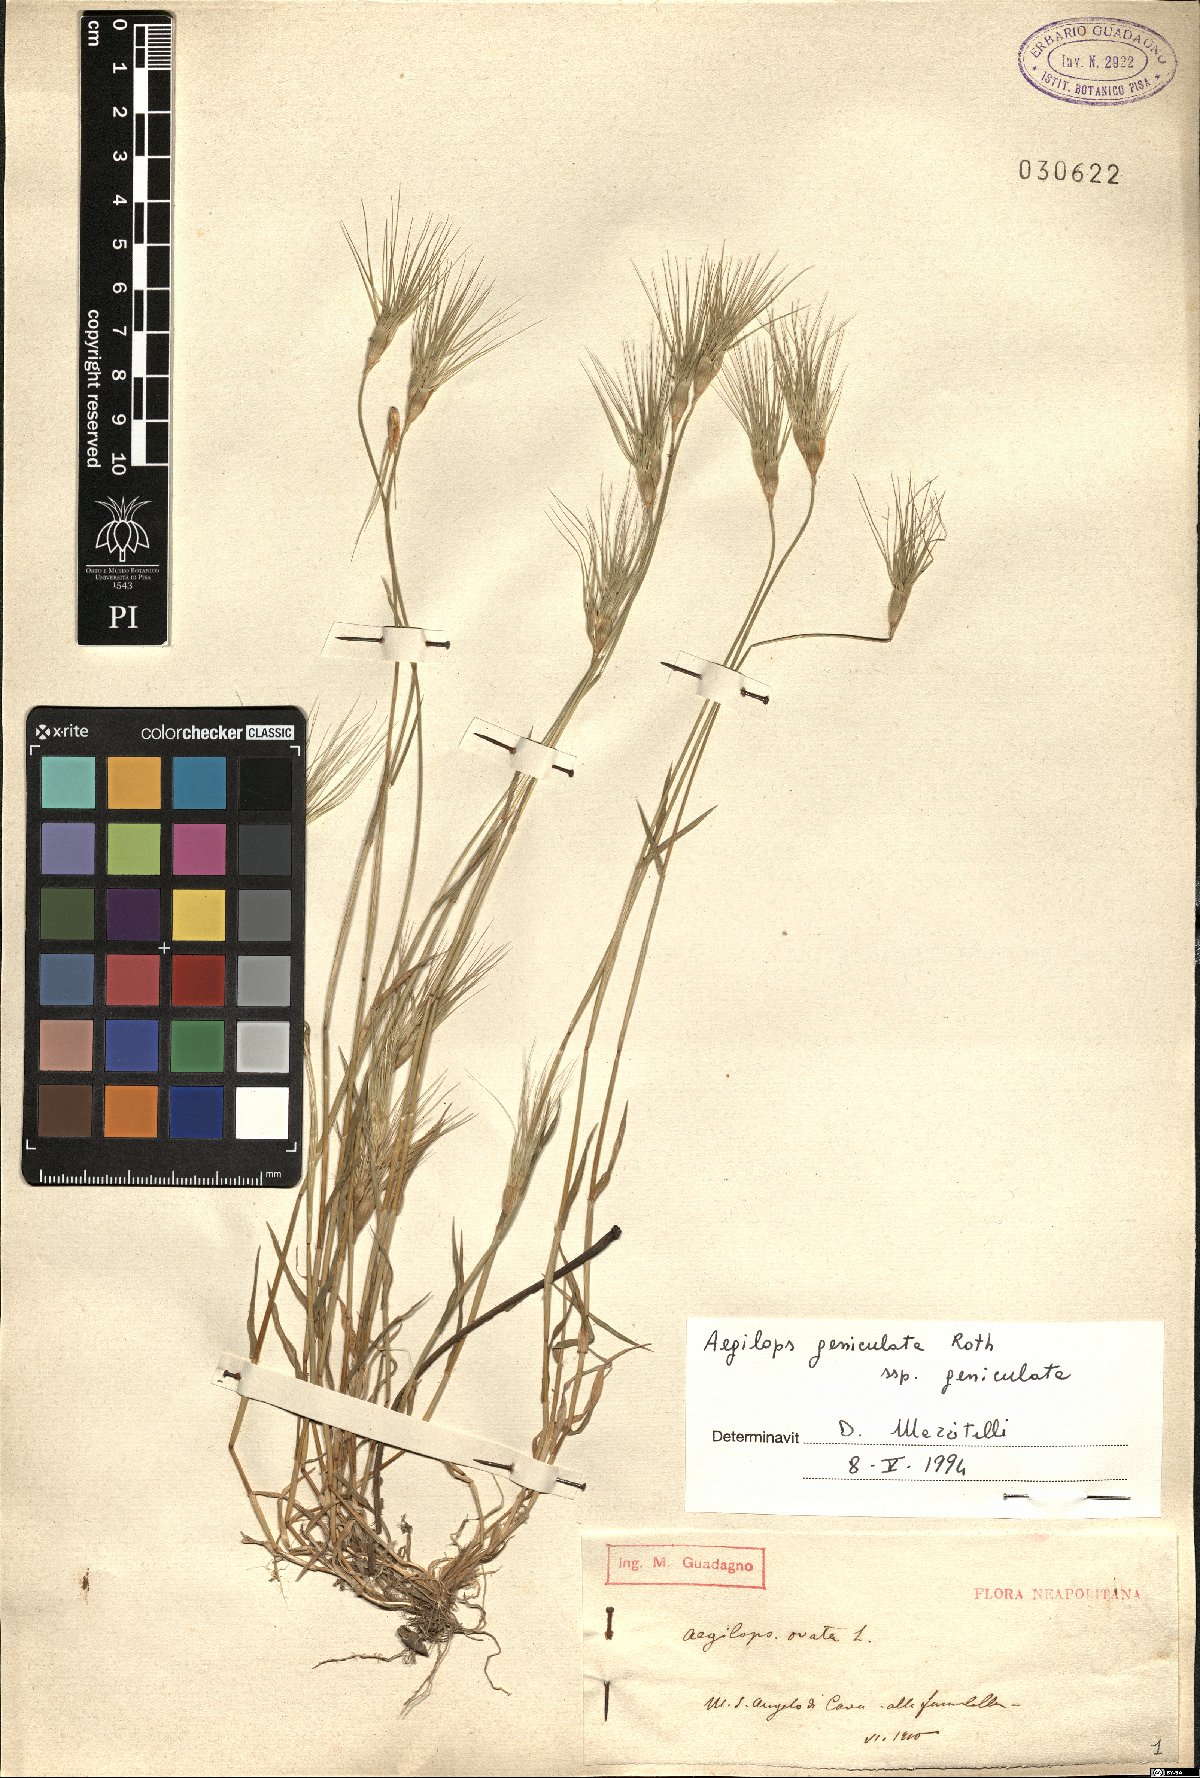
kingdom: Plantae
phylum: Tracheophyta
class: Liliopsida
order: Poales
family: Poaceae
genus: Aegilops
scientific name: Aegilops geniculata
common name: Ovate goat grass
